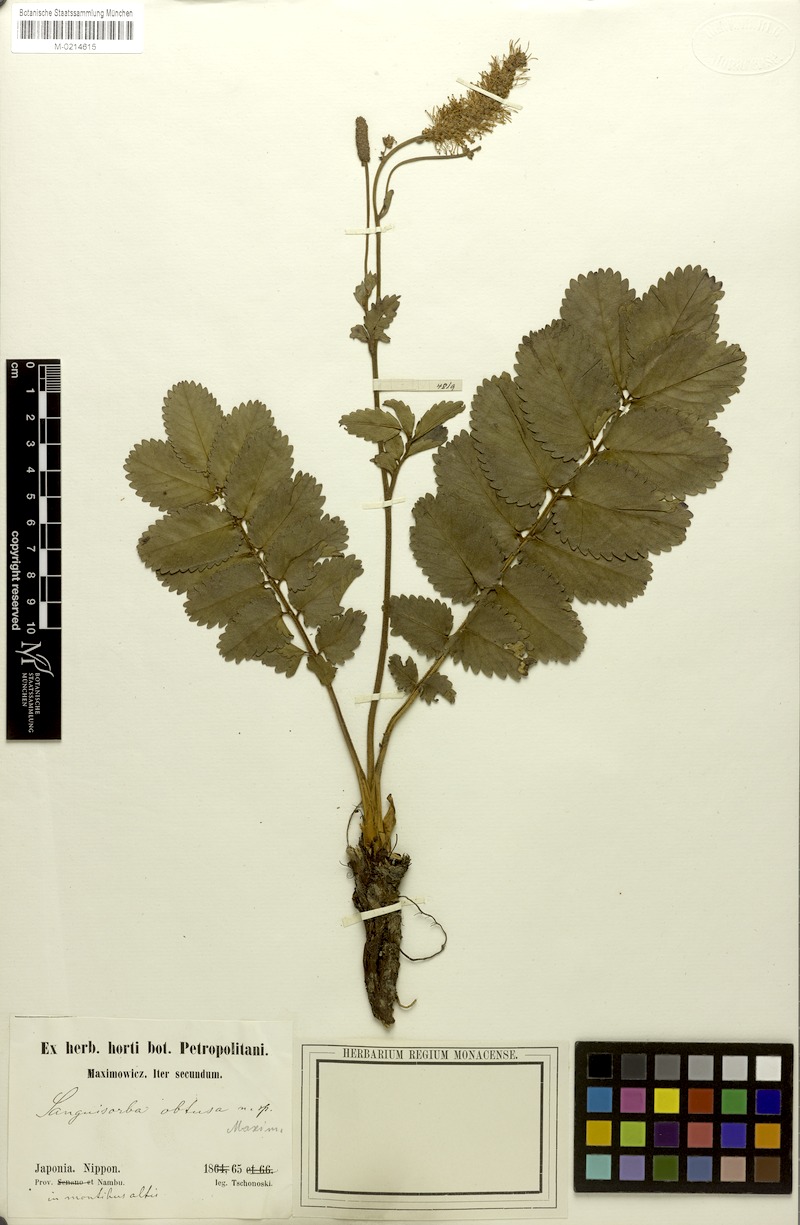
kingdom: Plantae
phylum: Tracheophyta
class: Magnoliopsida
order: Rosales
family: Rosaceae
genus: Sanguisorba
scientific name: Sanguisorba obtusa
